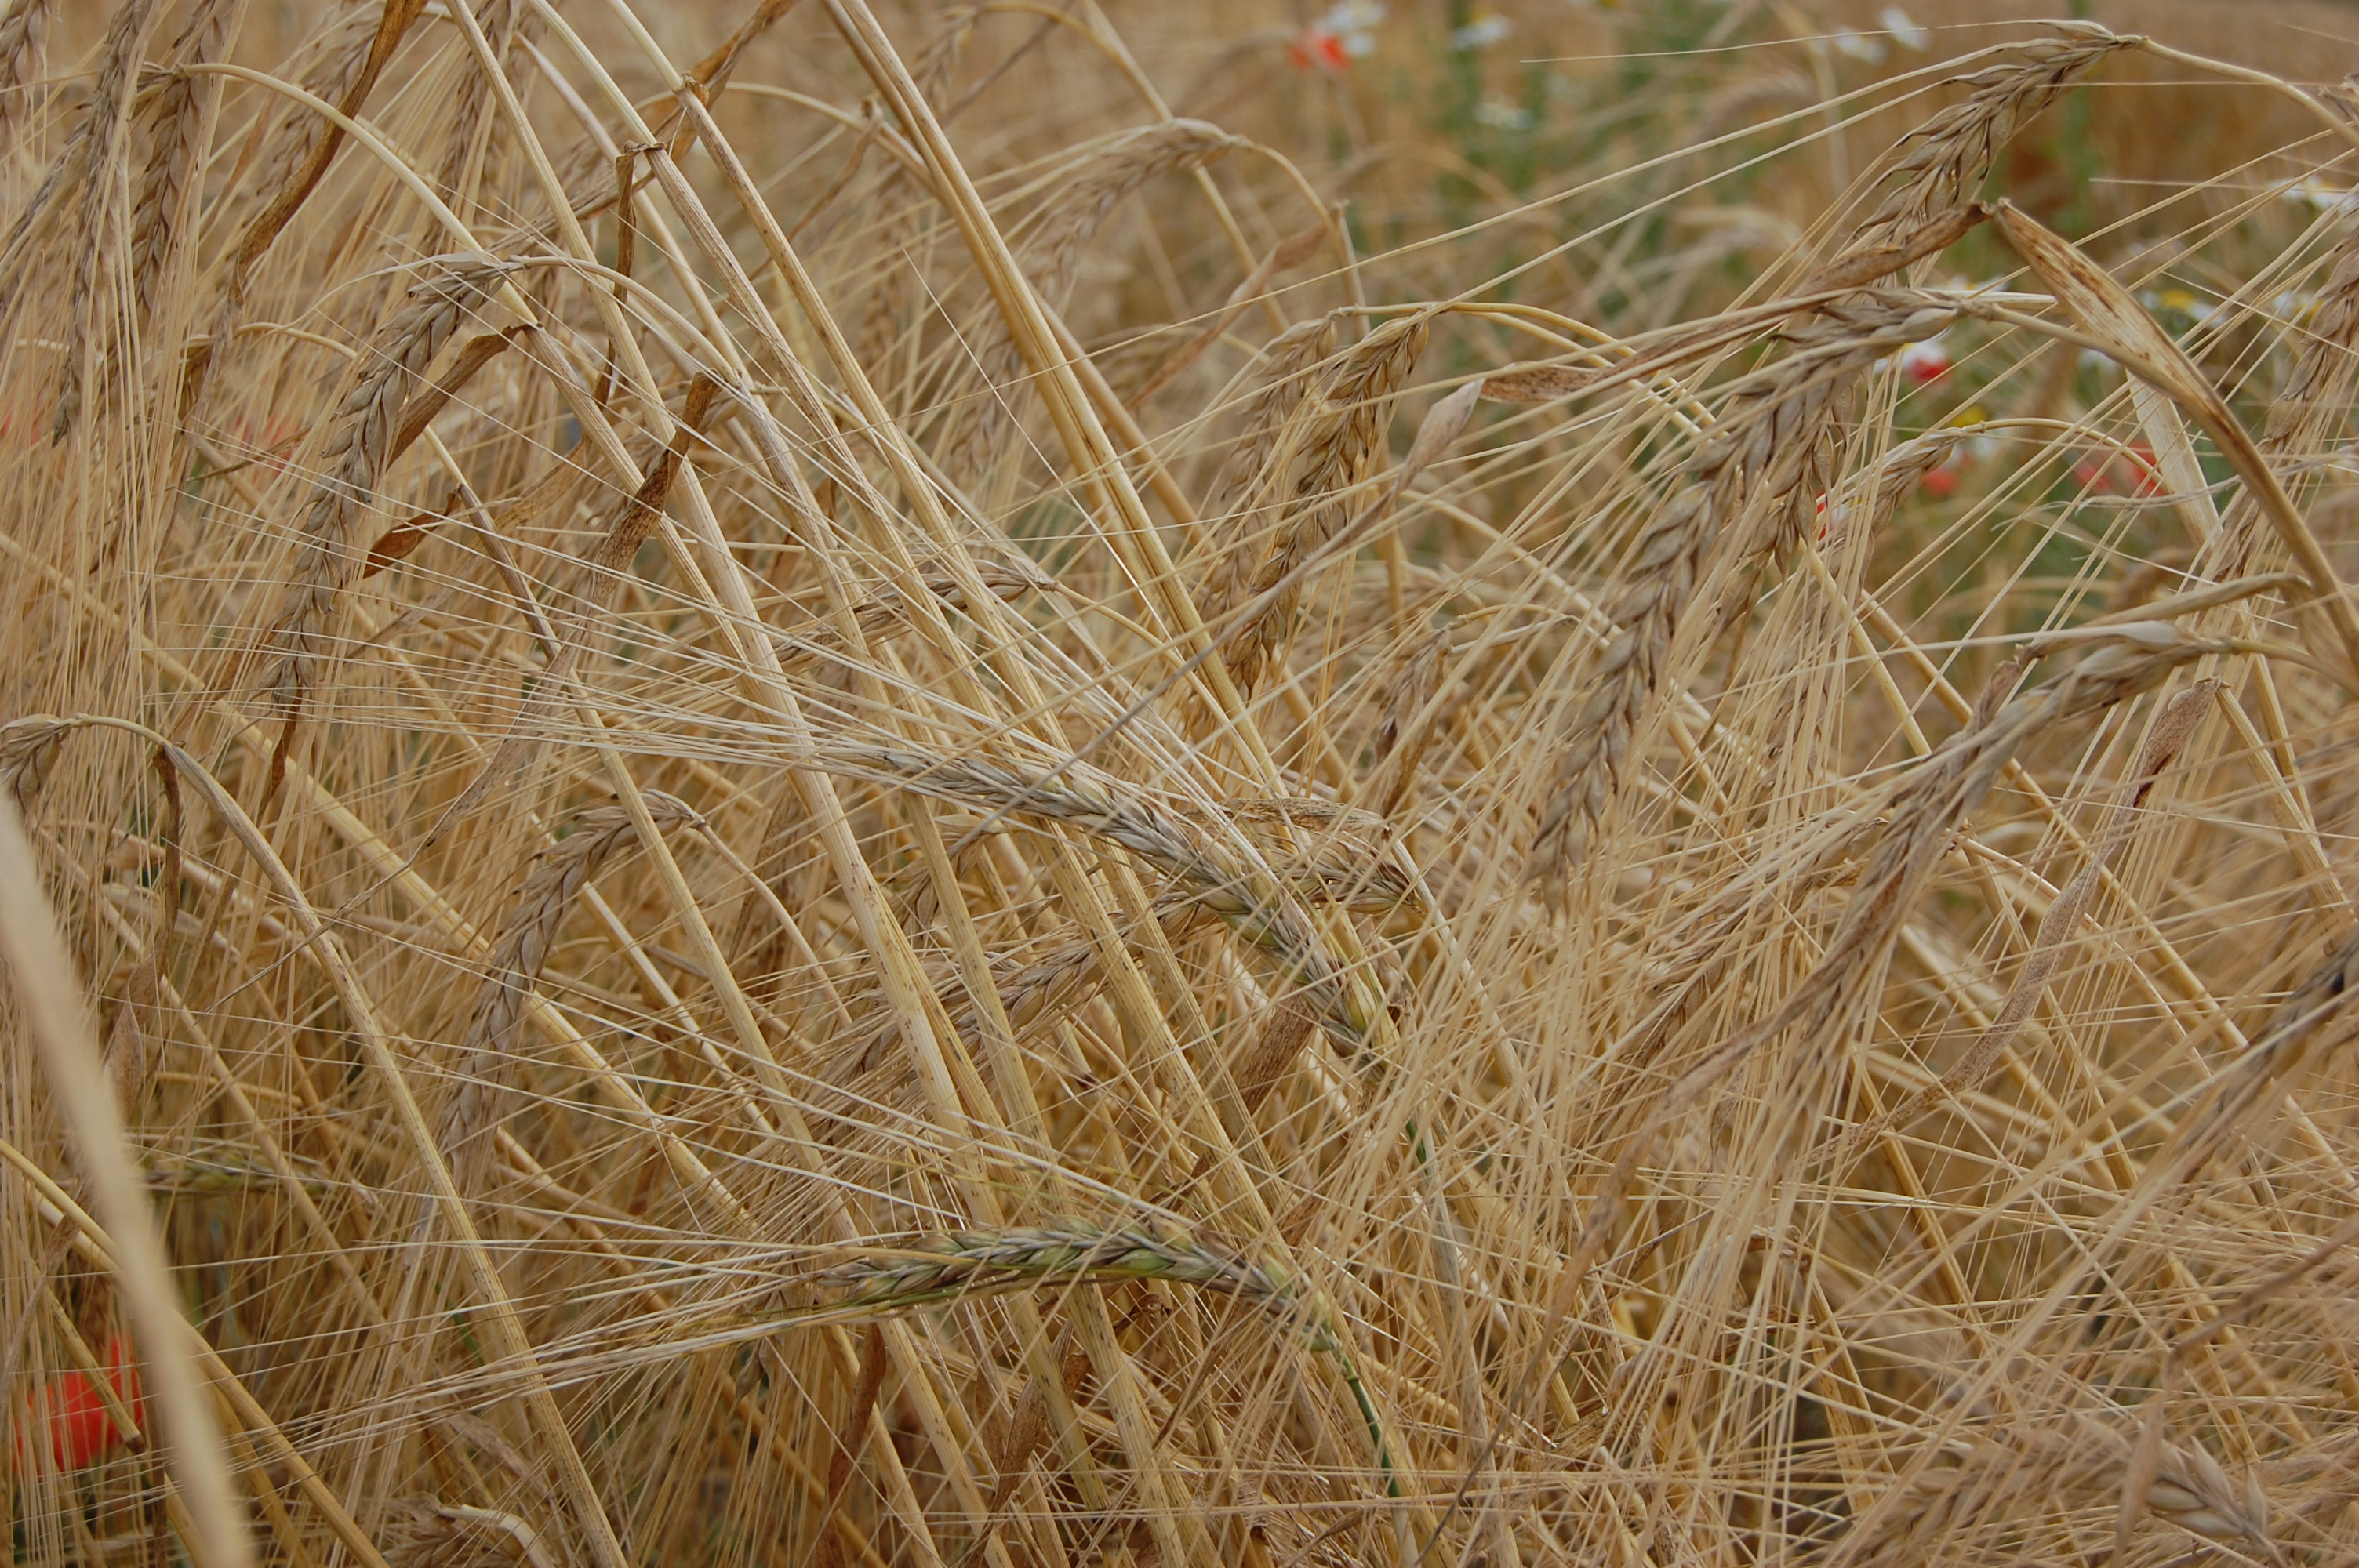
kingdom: Plantae
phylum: Tracheophyta
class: Liliopsida
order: Poales
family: Poaceae
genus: Hordeum
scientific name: Hordeum vulgare
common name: Common barley
